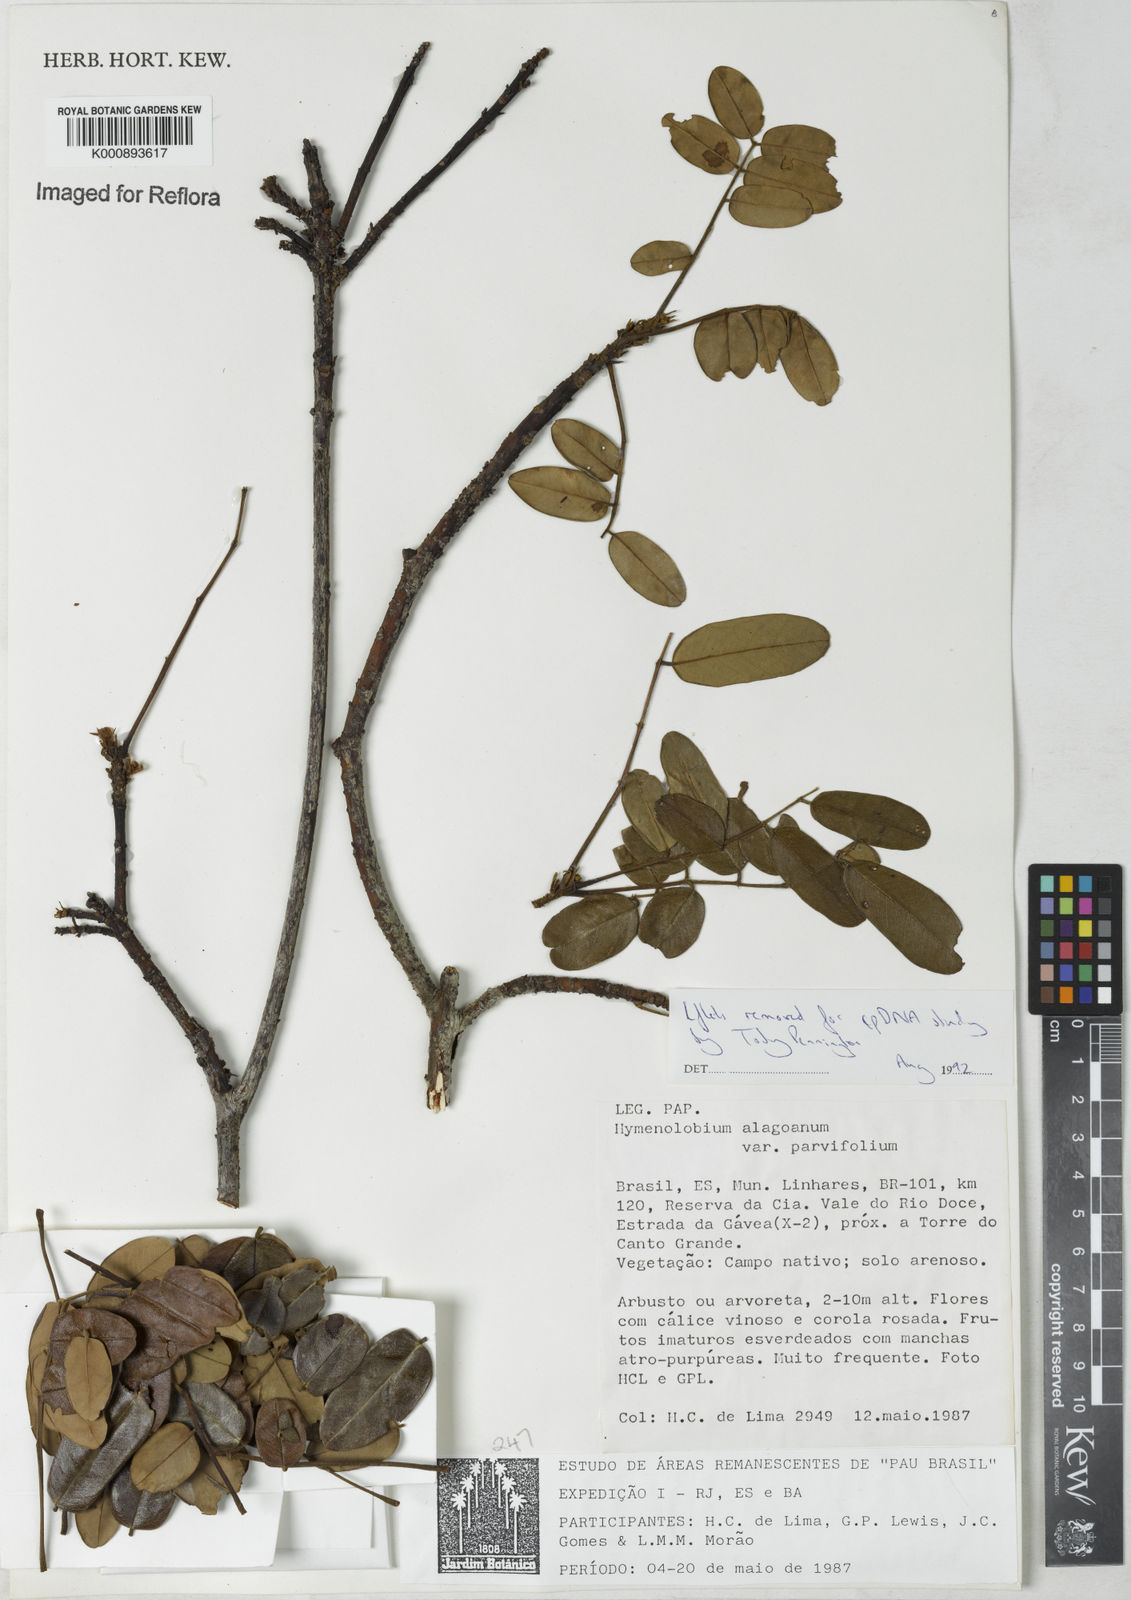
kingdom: Plantae
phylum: Tracheophyta
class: Magnoliopsida
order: Fabales
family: Fabaceae
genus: Hymenolobium
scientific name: Hymenolobium alagoanum
